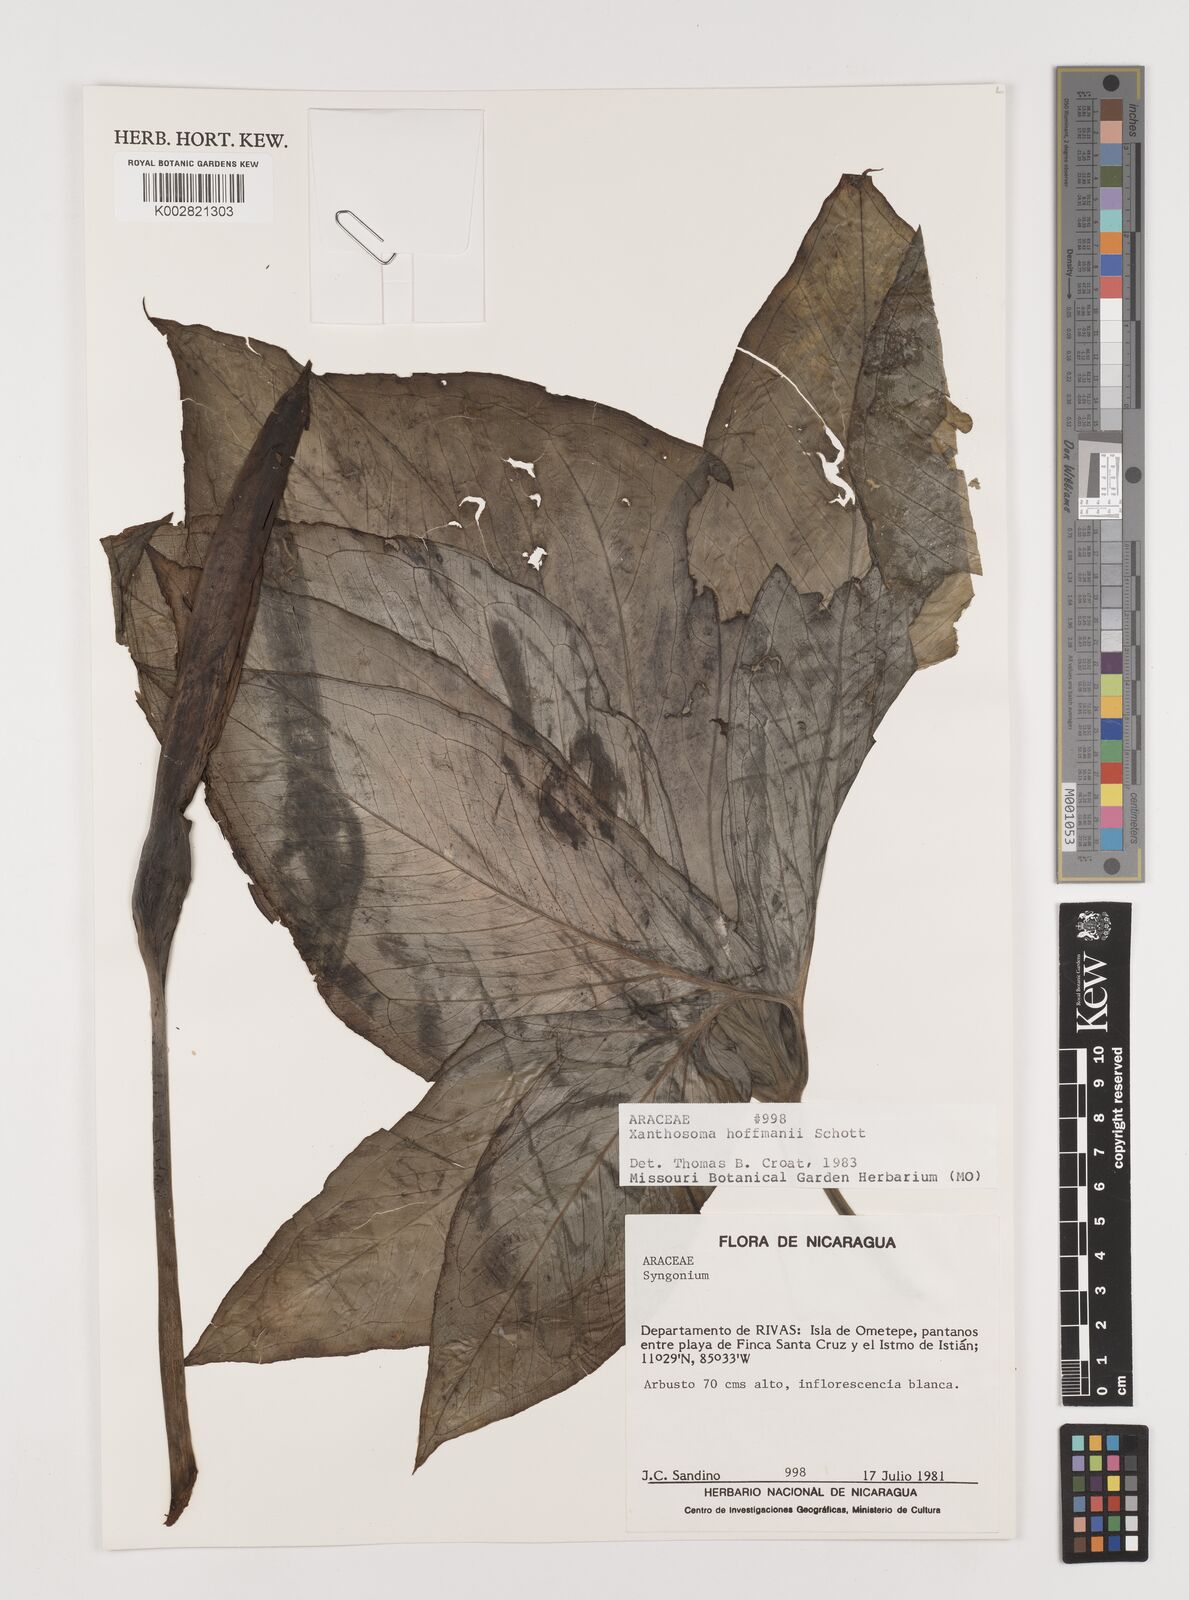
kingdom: Plantae
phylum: Tracheophyta
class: Liliopsida
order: Alismatales
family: Araceae
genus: Xanthosoma
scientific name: Xanthosoma wendlandii
